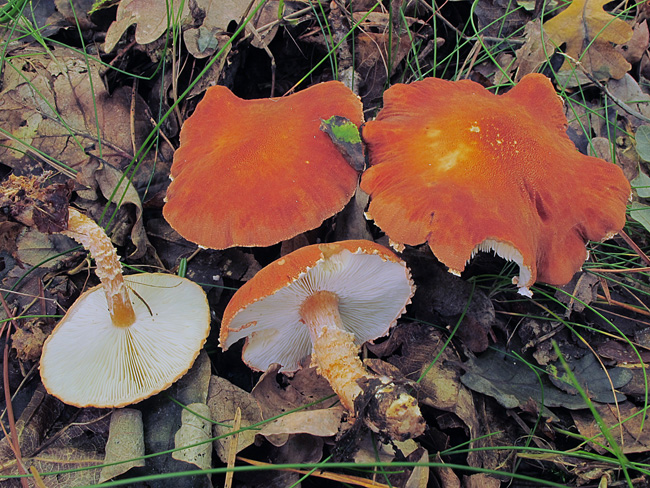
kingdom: Fungi
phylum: Basidiomycota
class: Agaricomycetes
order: Agaricales
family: Agaricaceae
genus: Cystodermella
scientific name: Cystodermella cinnabarina
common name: cinnober-grynhat
